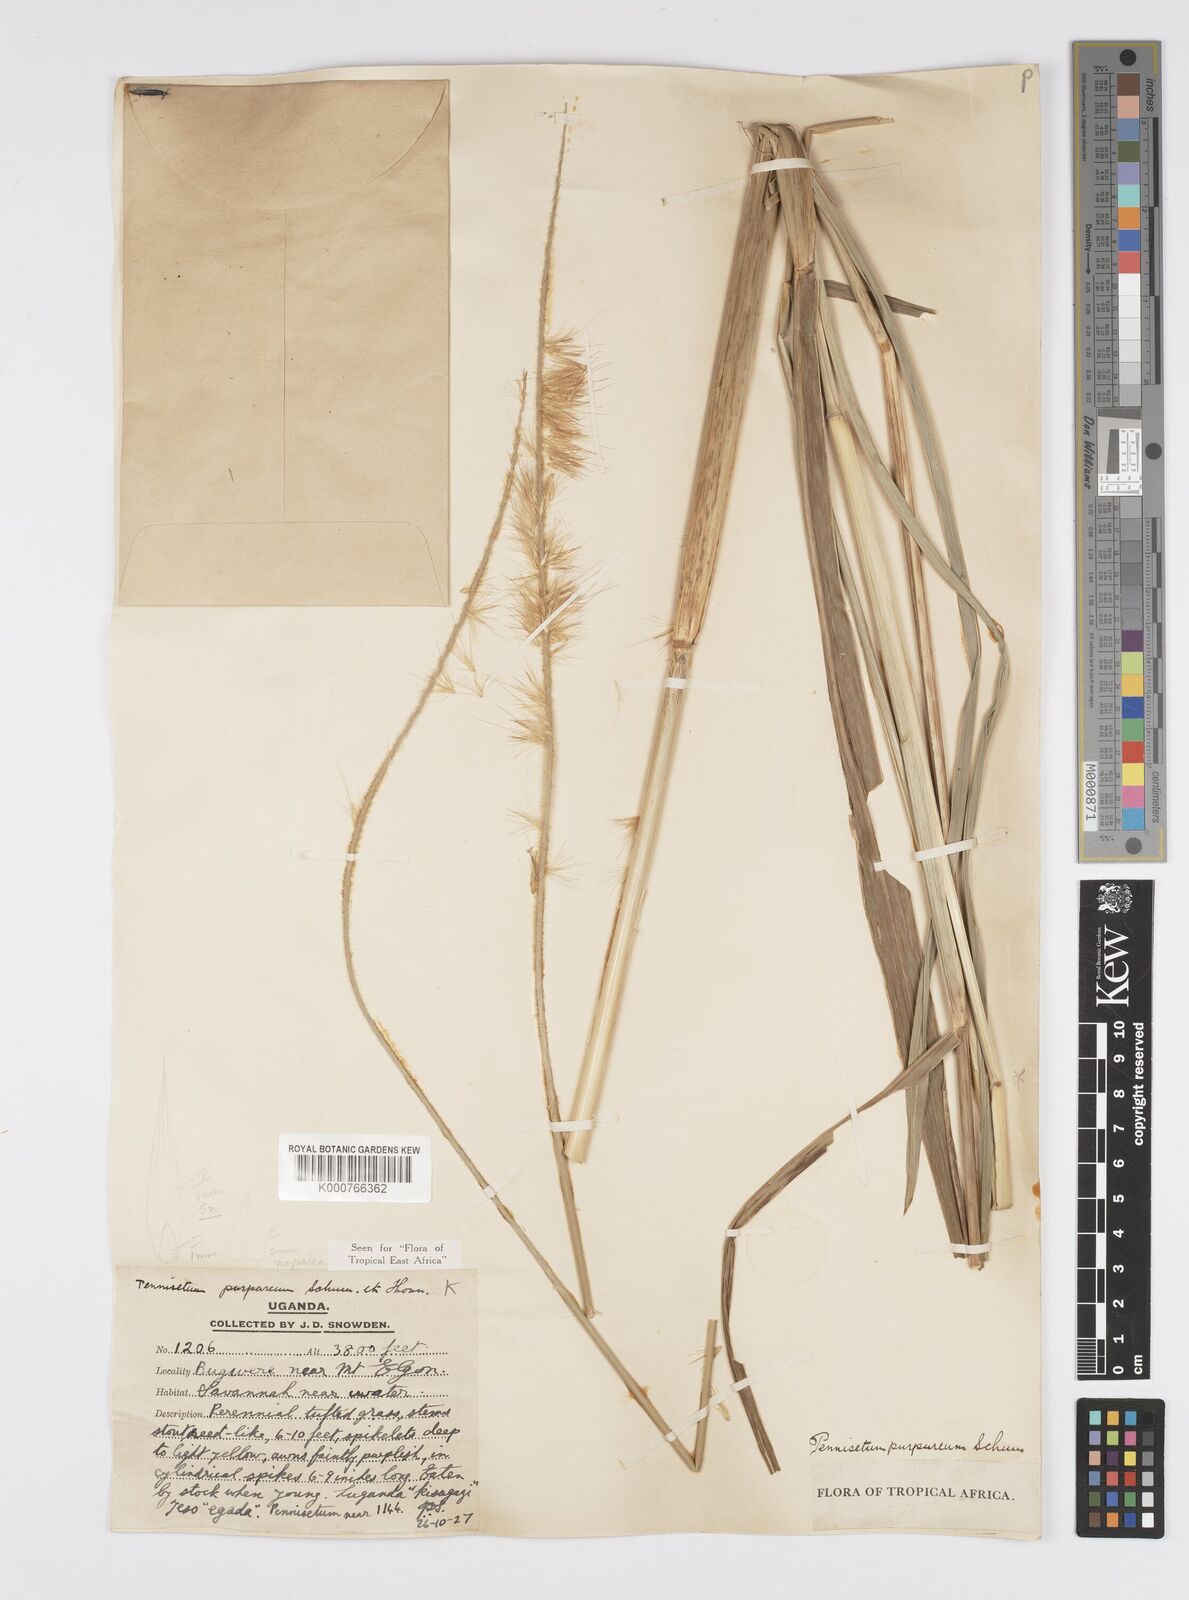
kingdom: Plantae
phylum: Tracheophyta
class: Liliopsida
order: Poales
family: Poaceae
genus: Cenchrus
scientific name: Cenchrus purpureus
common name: Elephant grass
